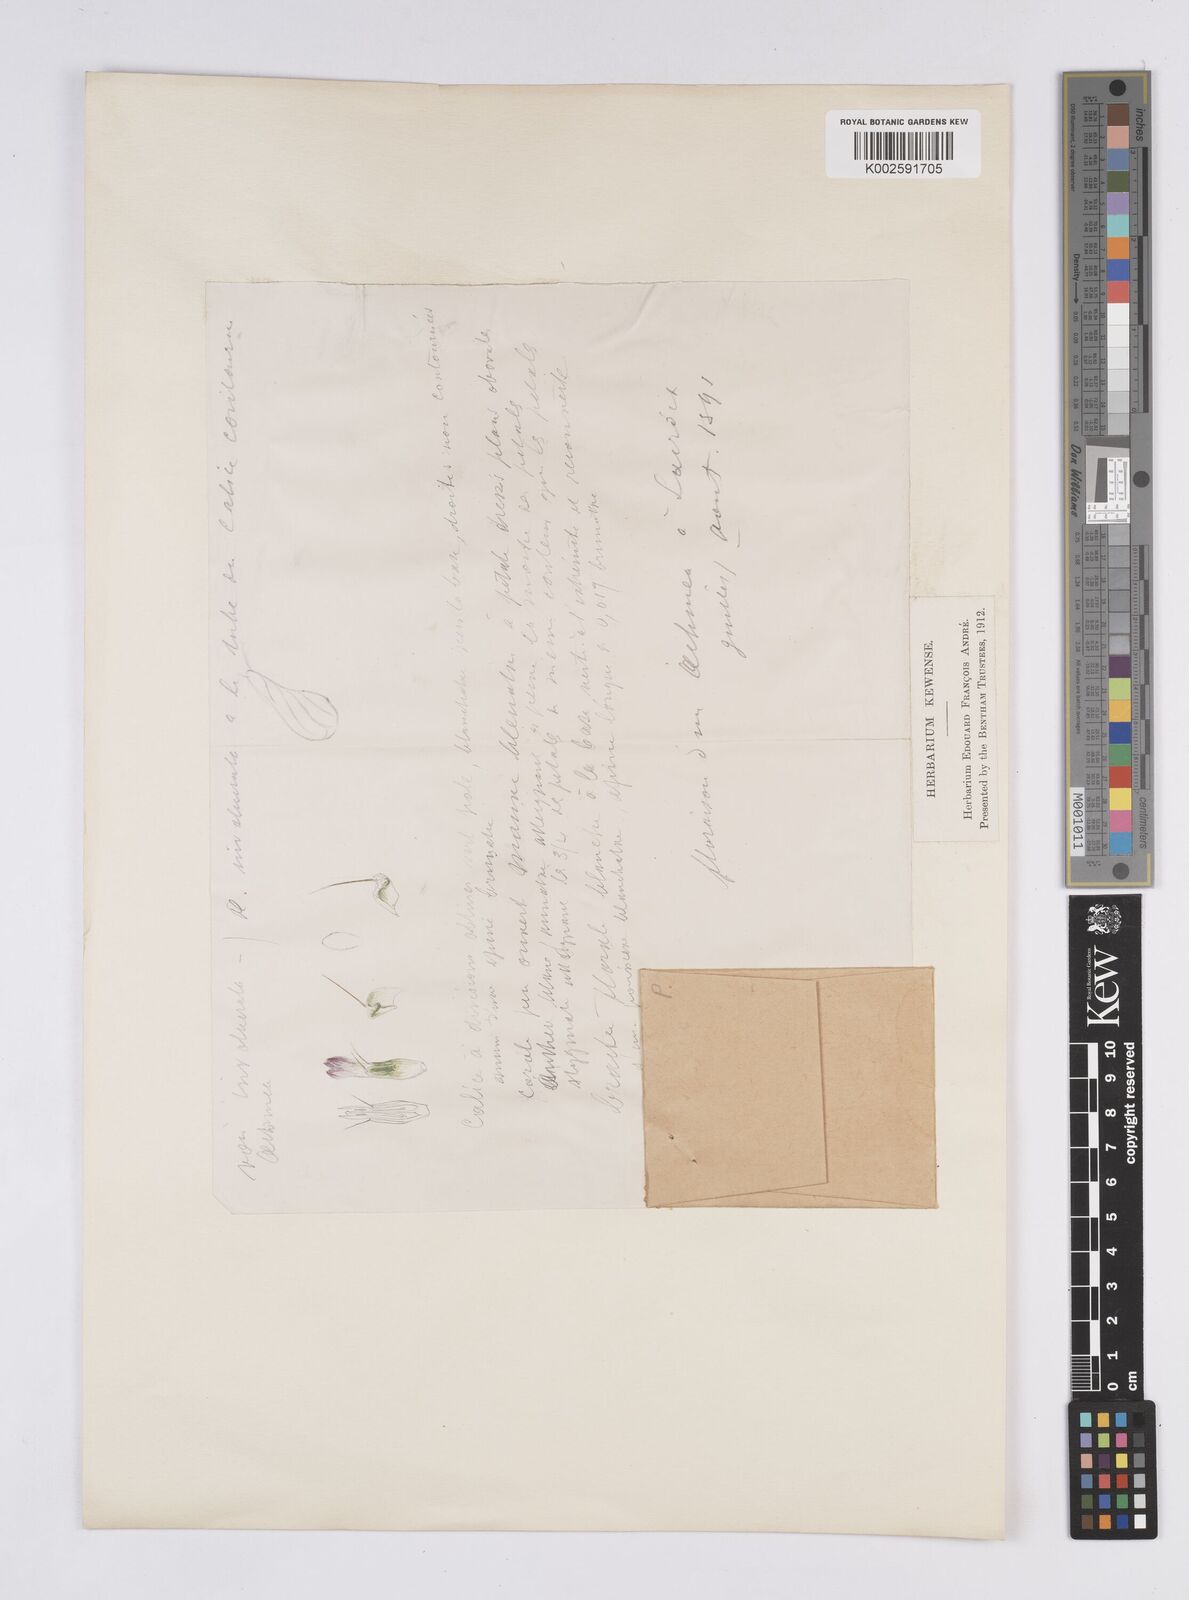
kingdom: Plantae
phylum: Tracheophyta
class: Liliopsida
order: Poales
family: Bromeliaceae
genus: Aechmea
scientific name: Aechmea
